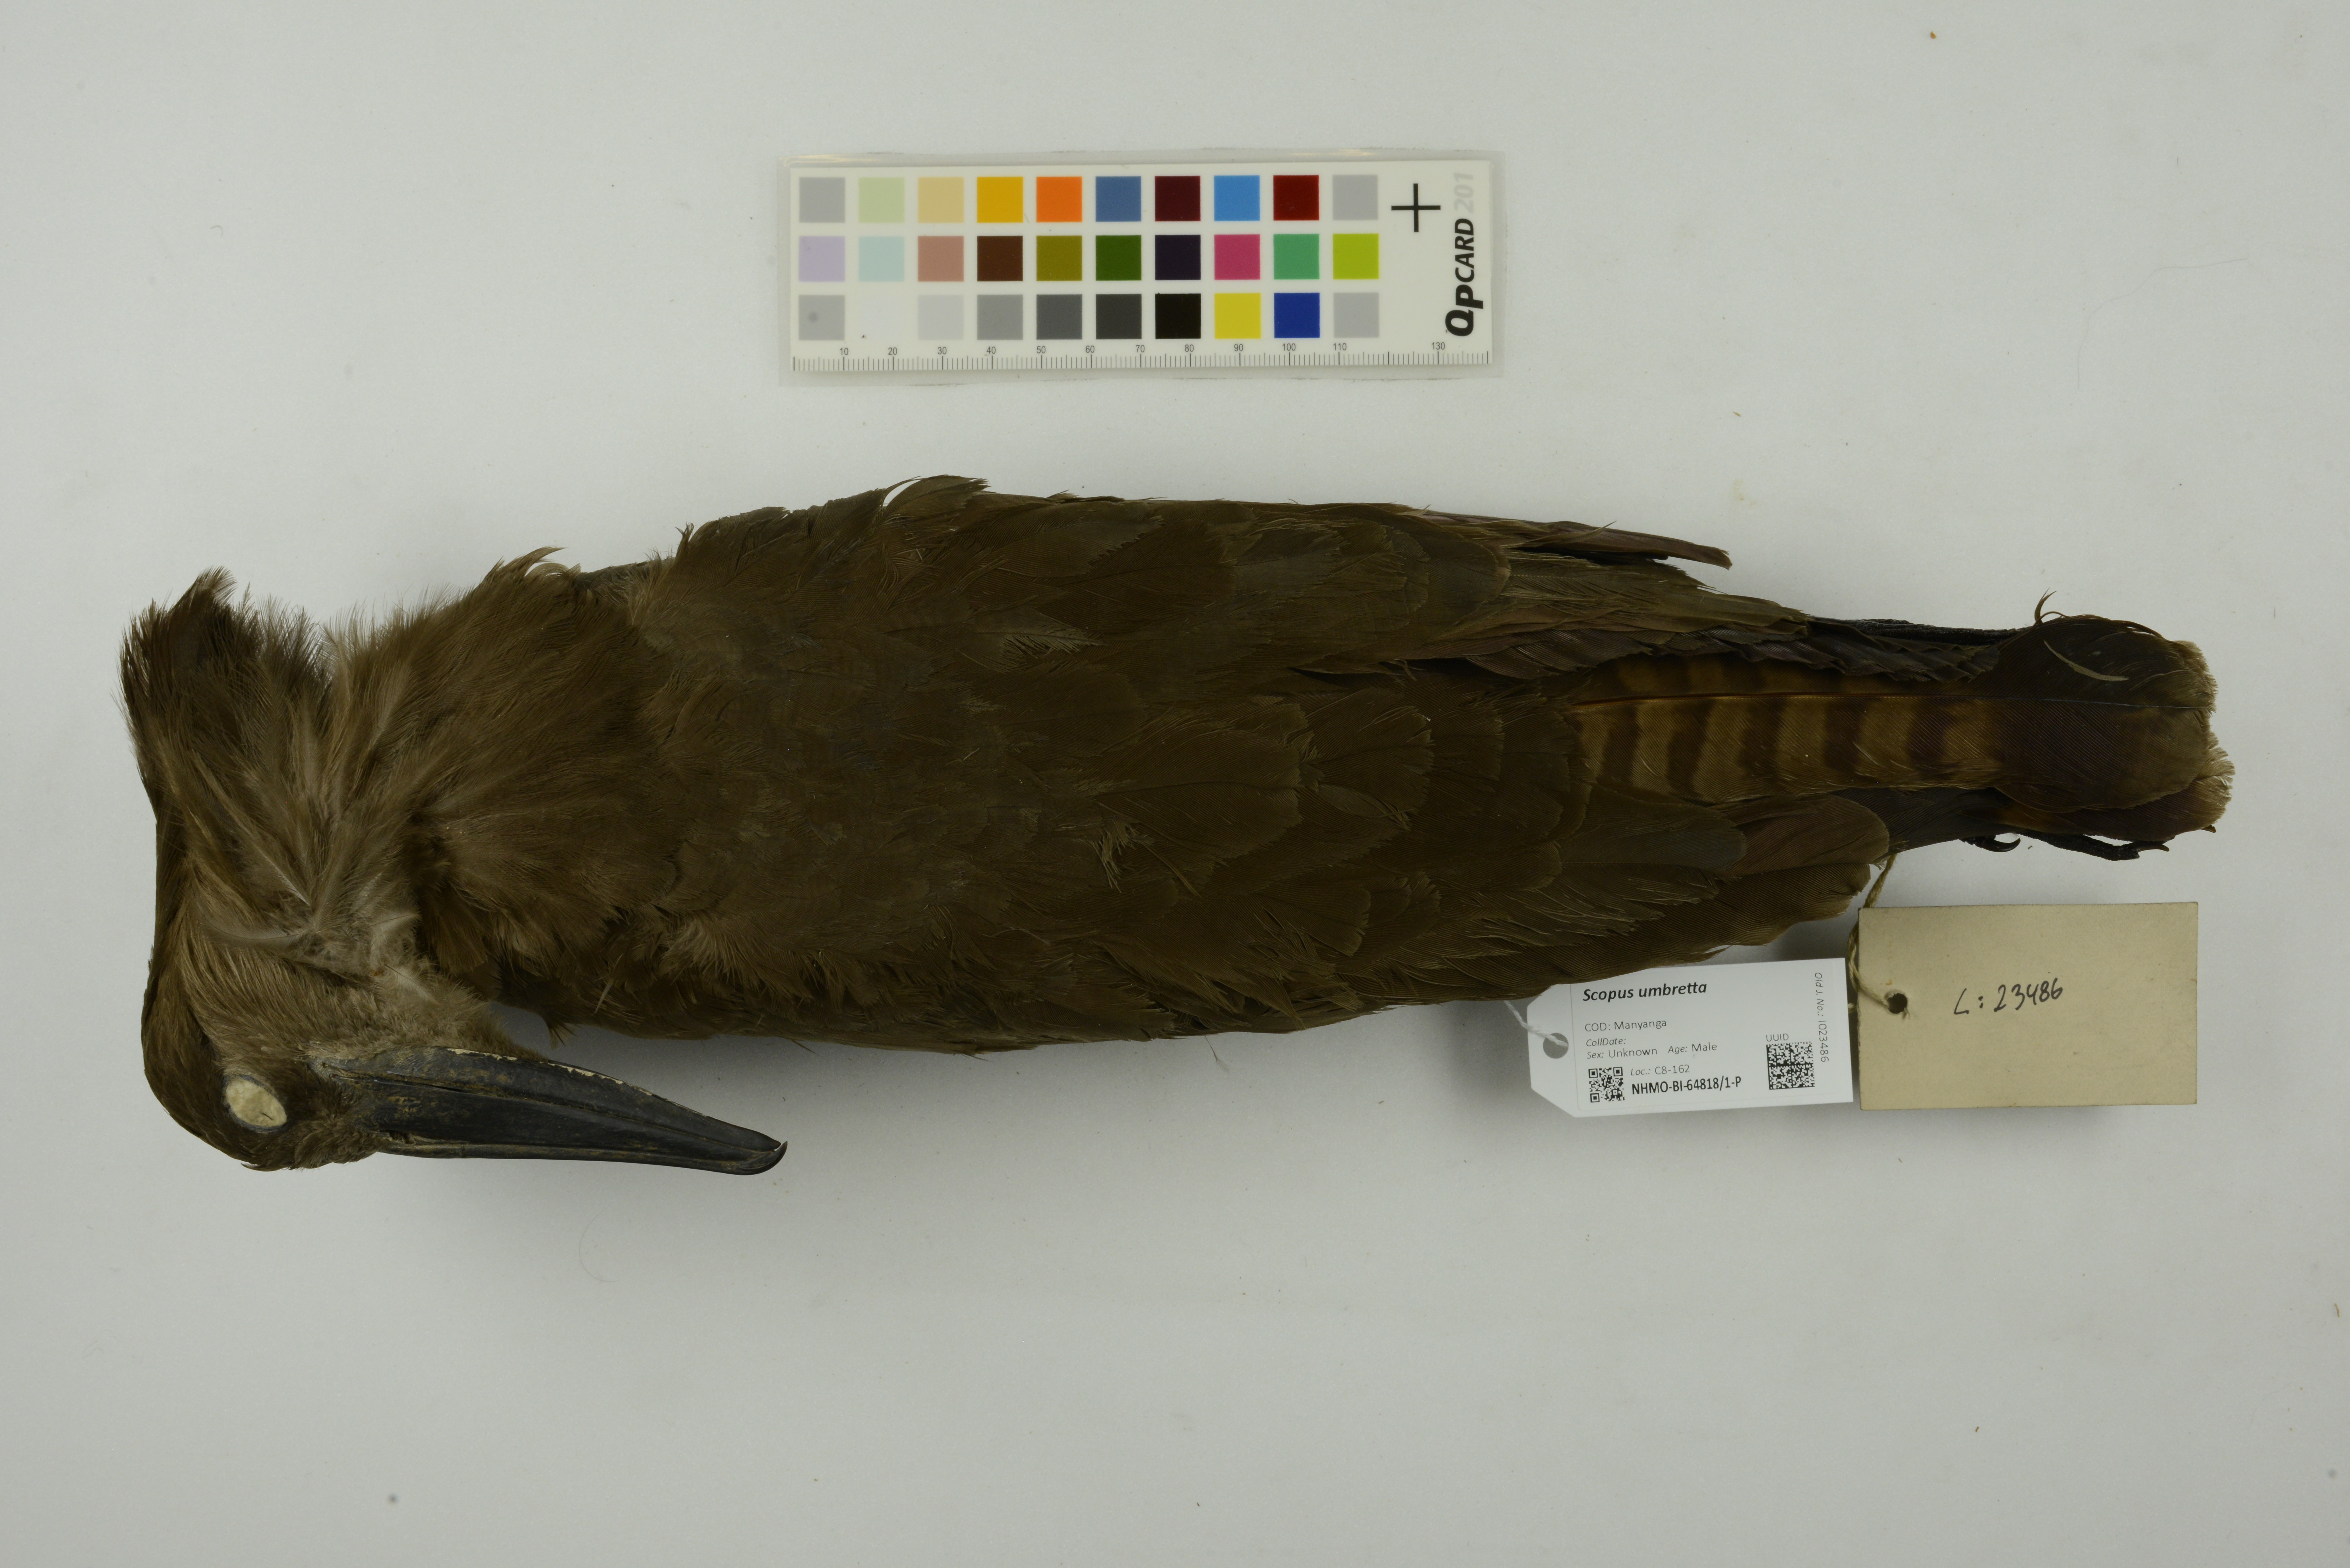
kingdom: Animalia
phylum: Chordata
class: Aves
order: Pelecaniformes
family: Scopidae
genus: Scopus
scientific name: Scopus umbretta
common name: Hamerkop
